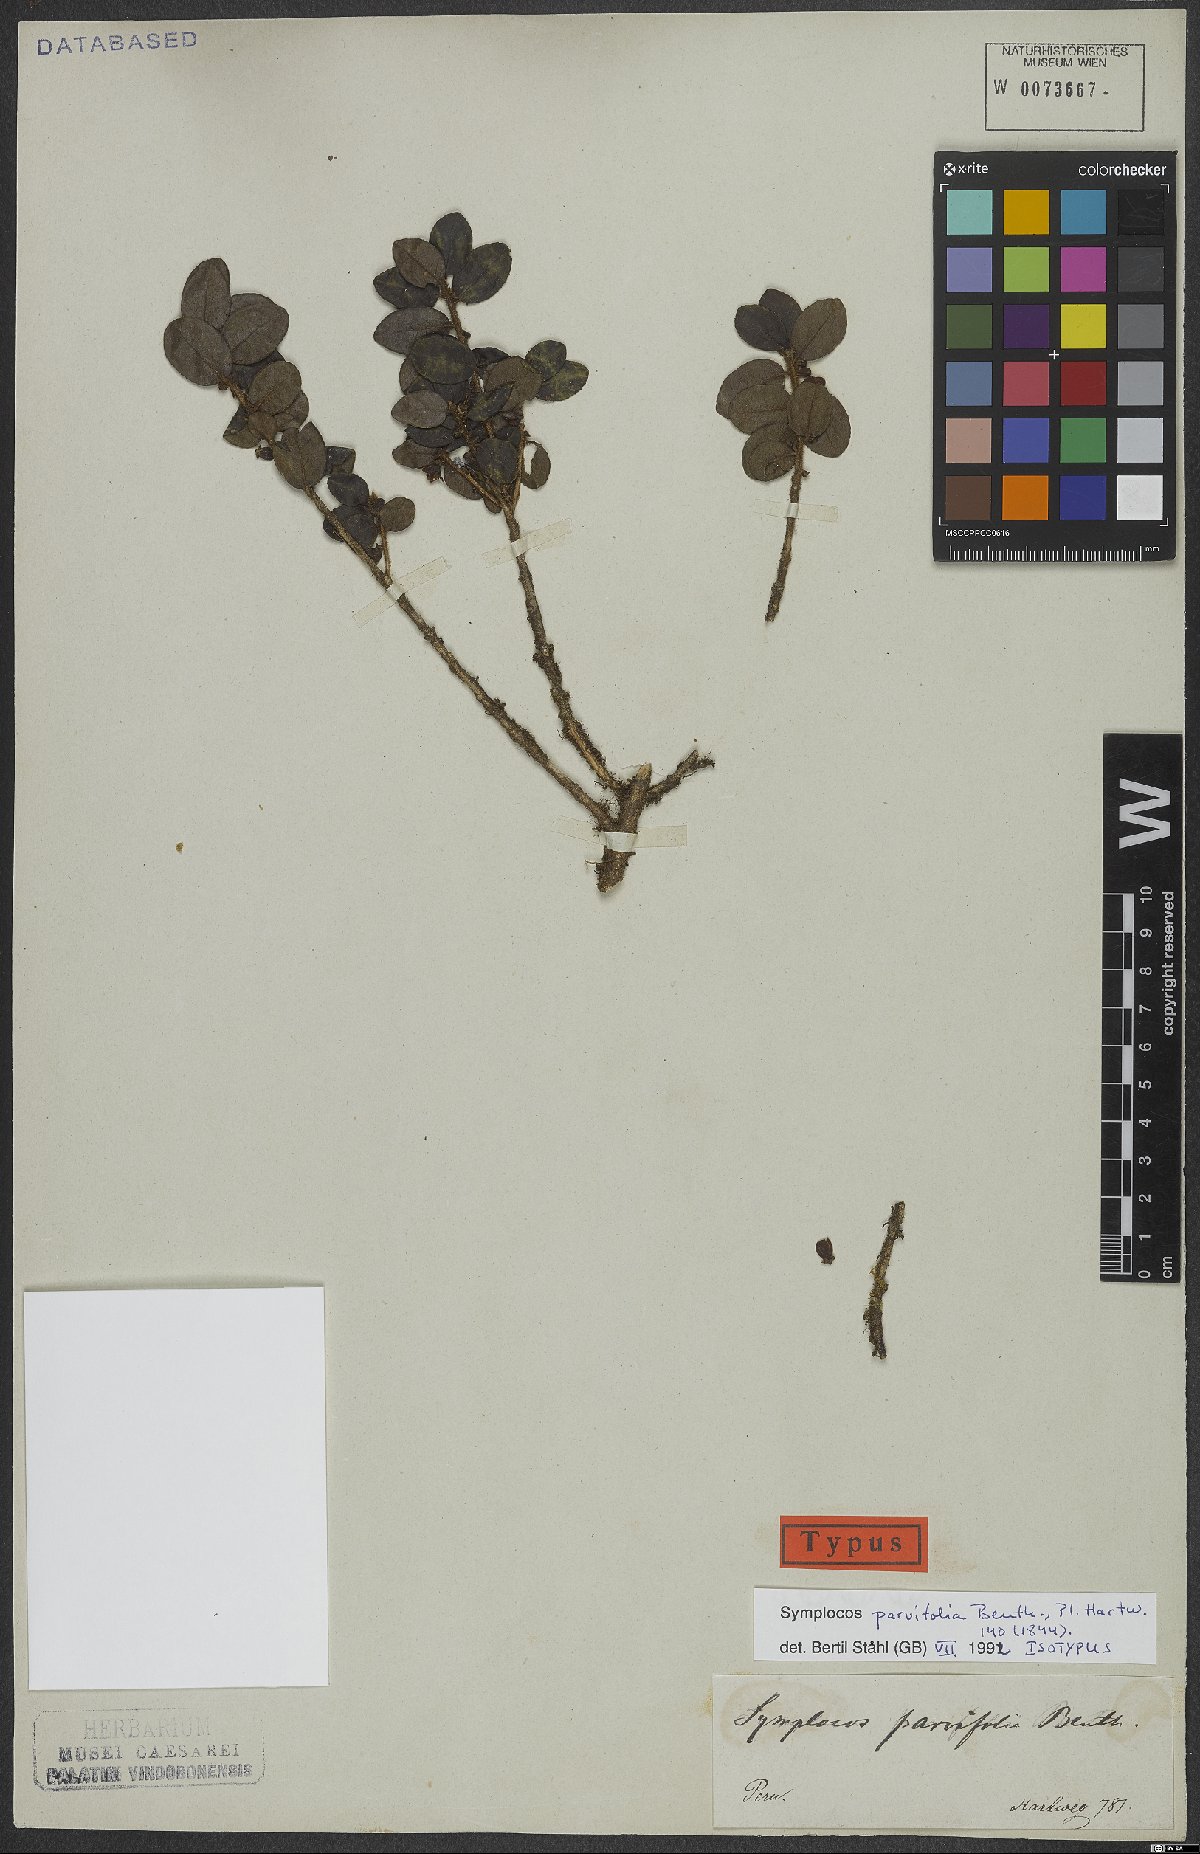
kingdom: Plantae
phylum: Tracheophyta
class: Magnoliopsida
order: Ericales
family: Symplocaceae
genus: Symplocos
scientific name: Symplocos parvifolia
